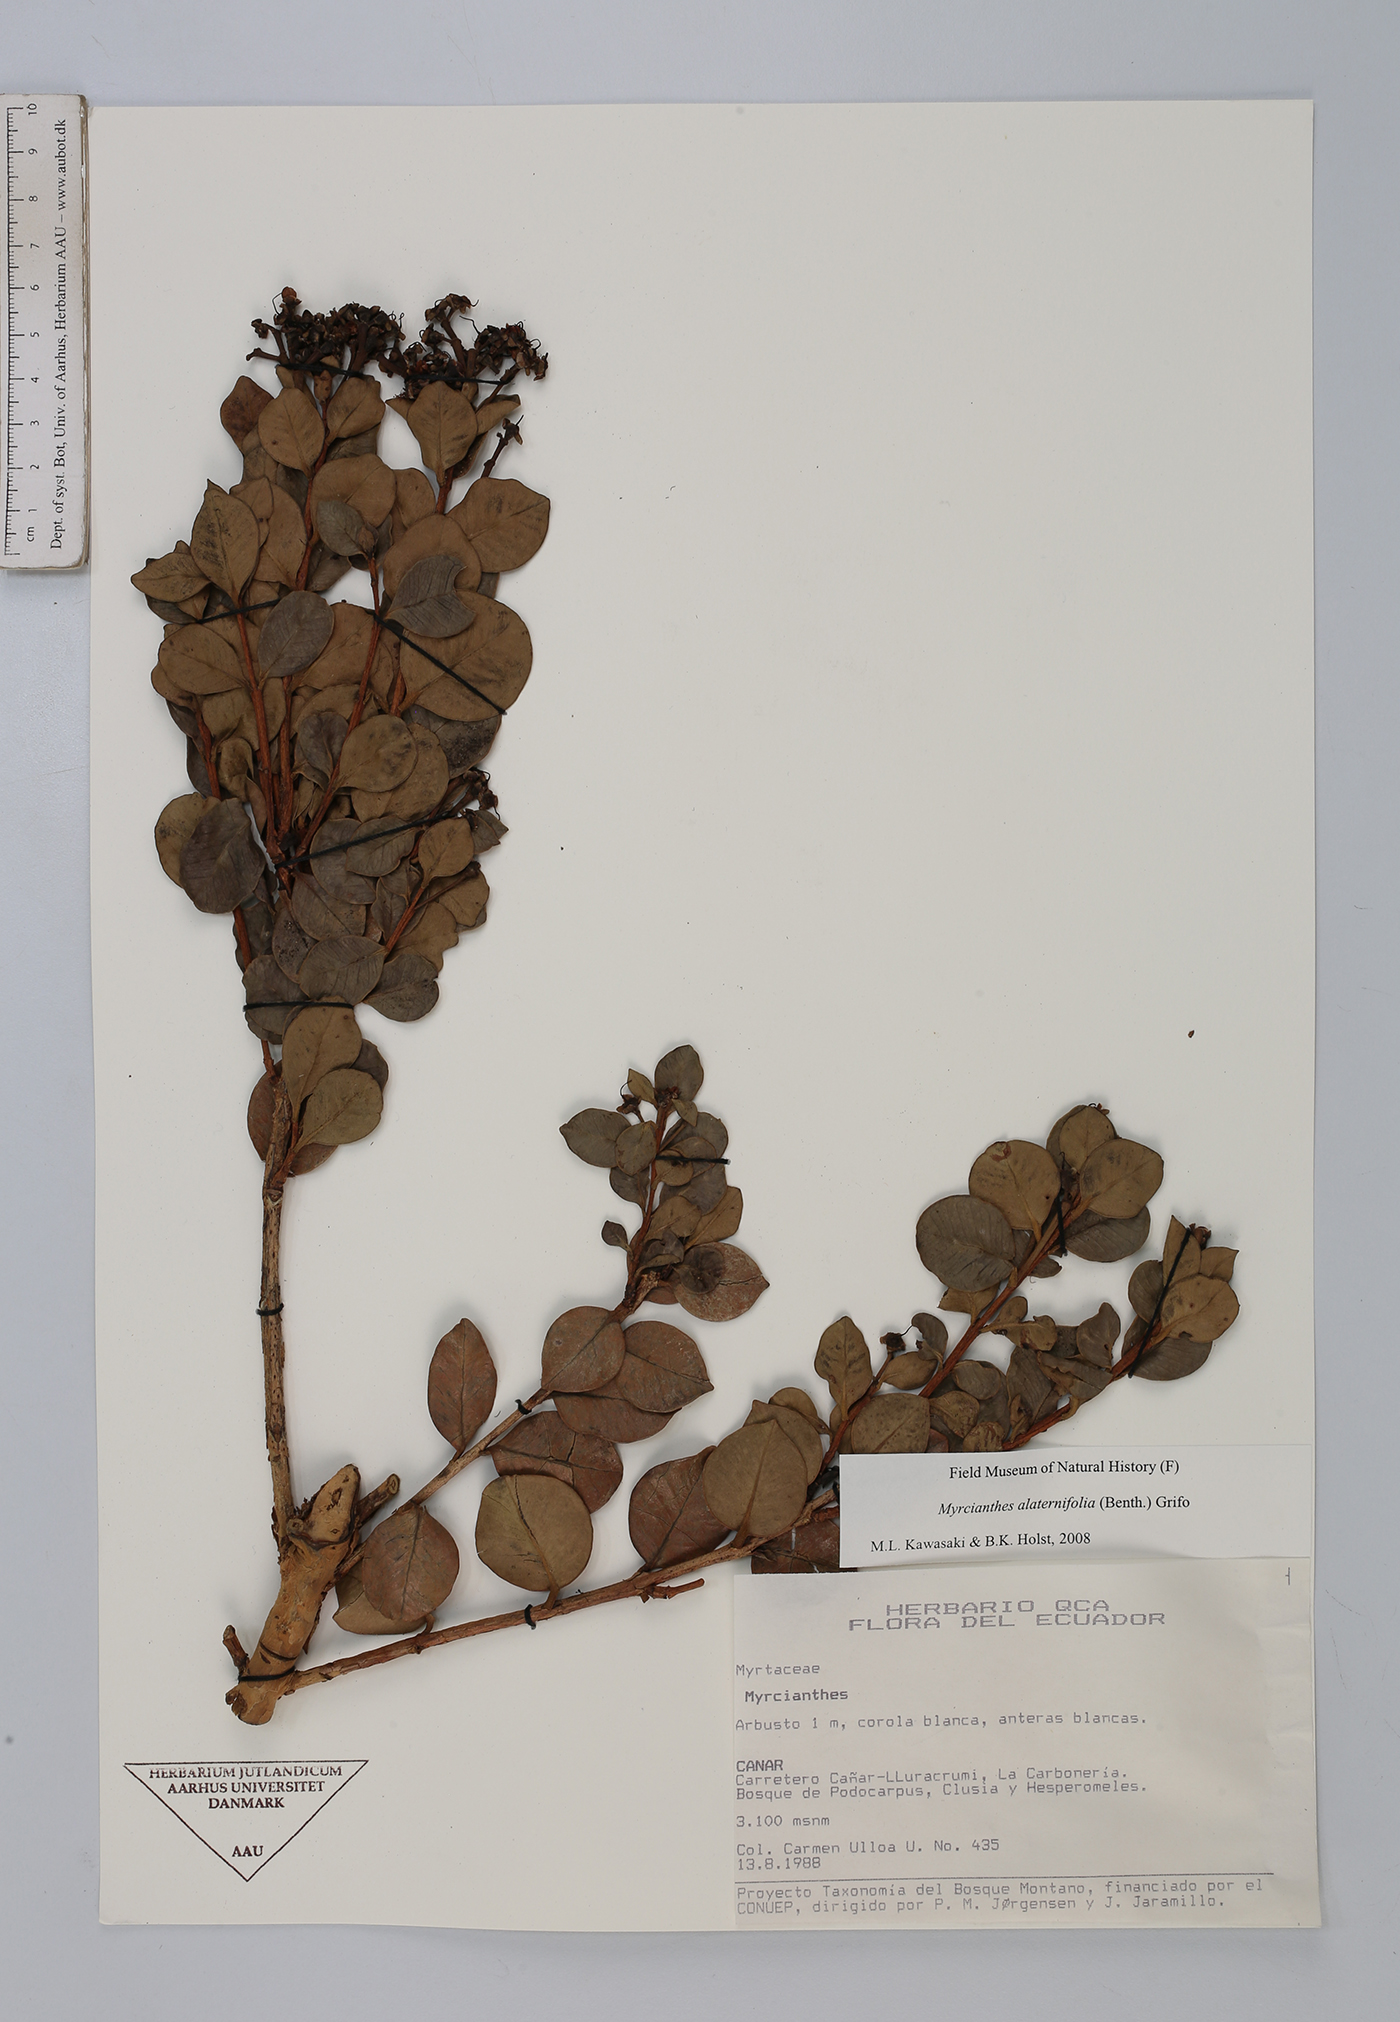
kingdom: Plantae
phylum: Tracheophyta
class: Magnoliopsida
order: Myrtales
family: Myrtaceae
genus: Myrcianthes
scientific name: Myrcianthes alaternifolia
